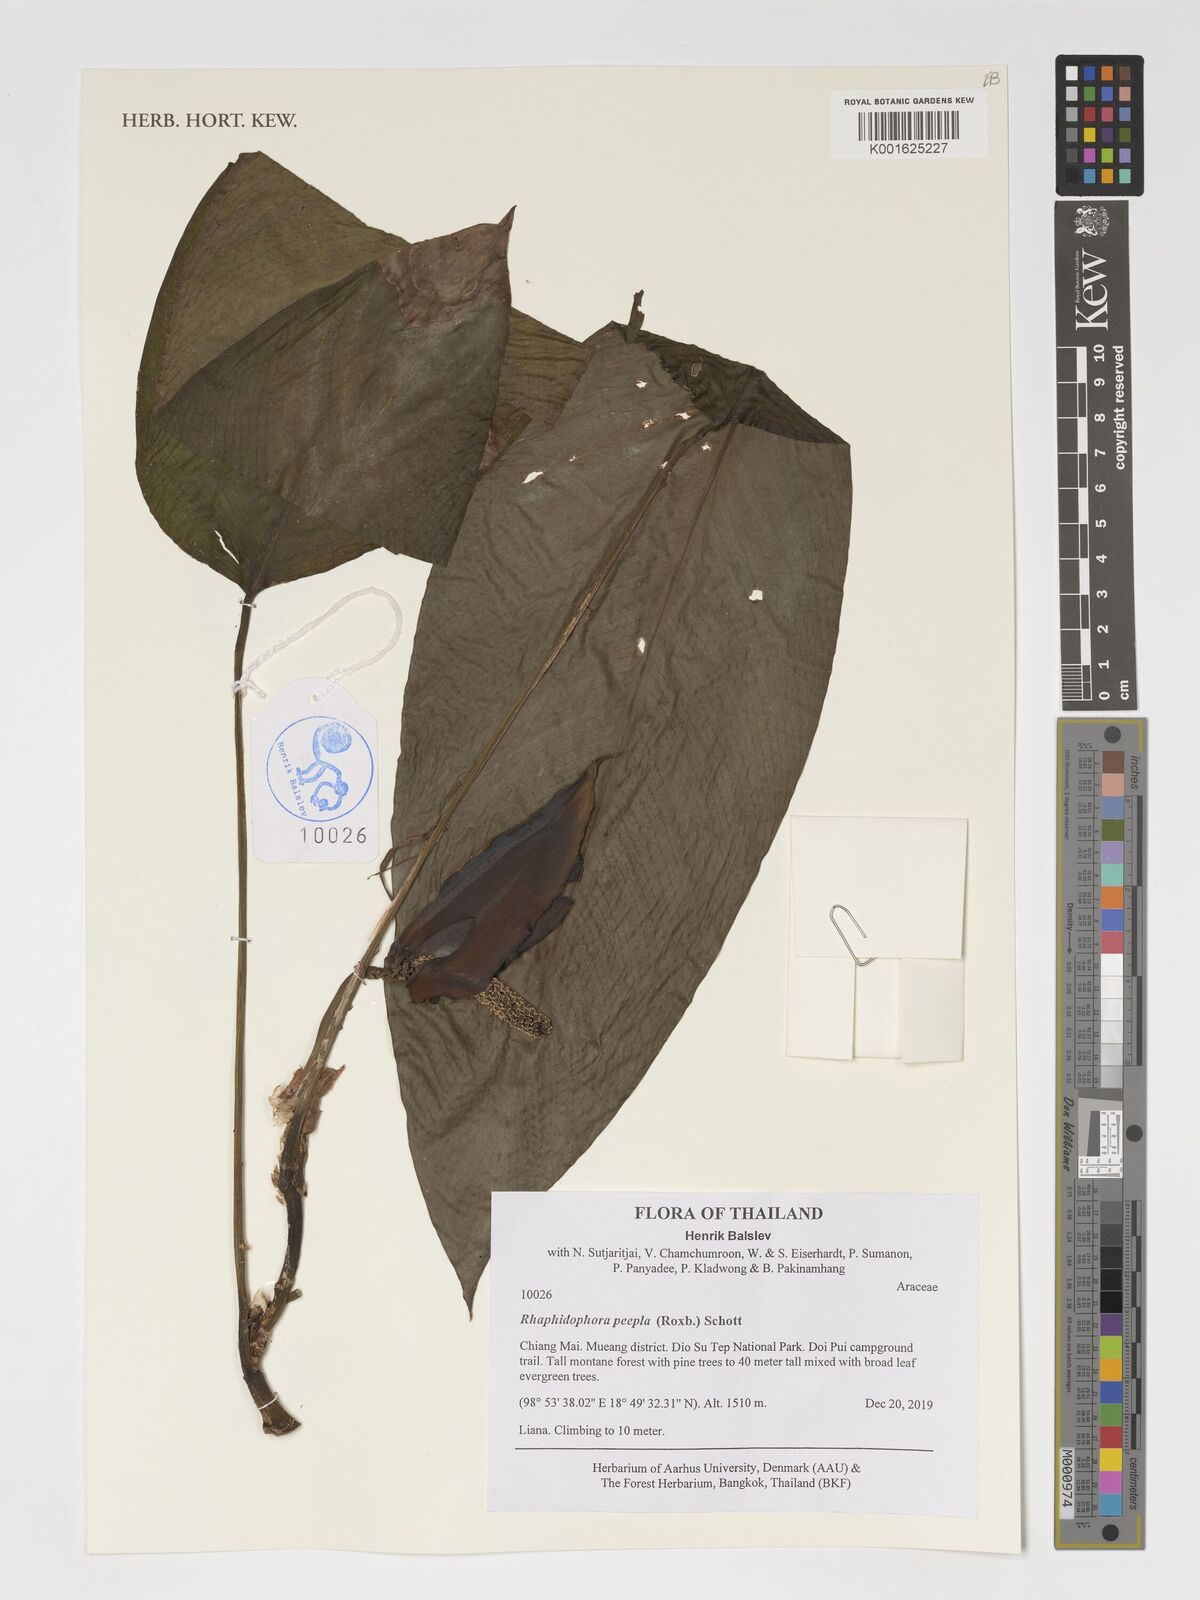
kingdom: Plantae
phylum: Tracheophyta
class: Liliopsida
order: Alismatales
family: Araceae
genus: Rhaphidophora
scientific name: Rhaphidophora peepla
